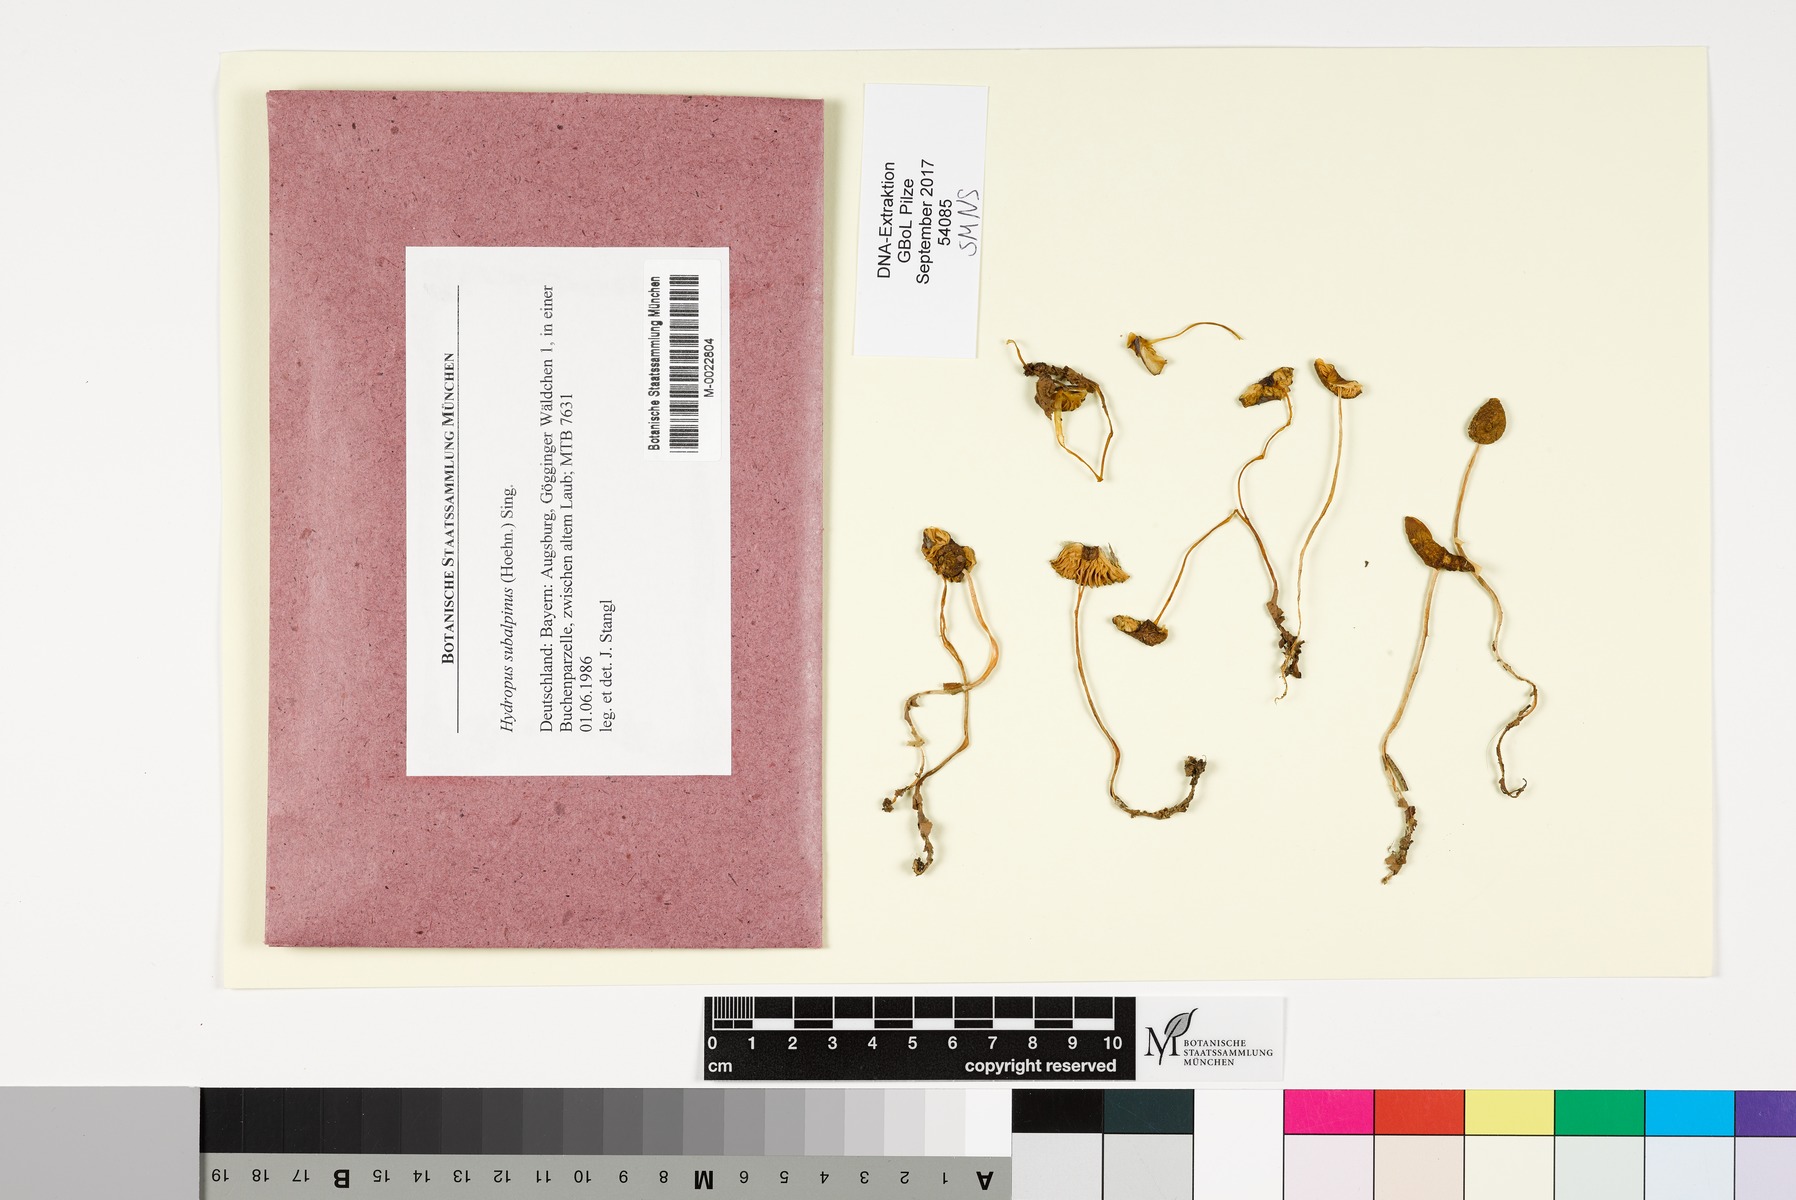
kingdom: Fungi
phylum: Basidiomycota
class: Agaricomycetes
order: Agaricales
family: Porotheleaceae
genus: Hydropodia
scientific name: Hydropodia subalpina
